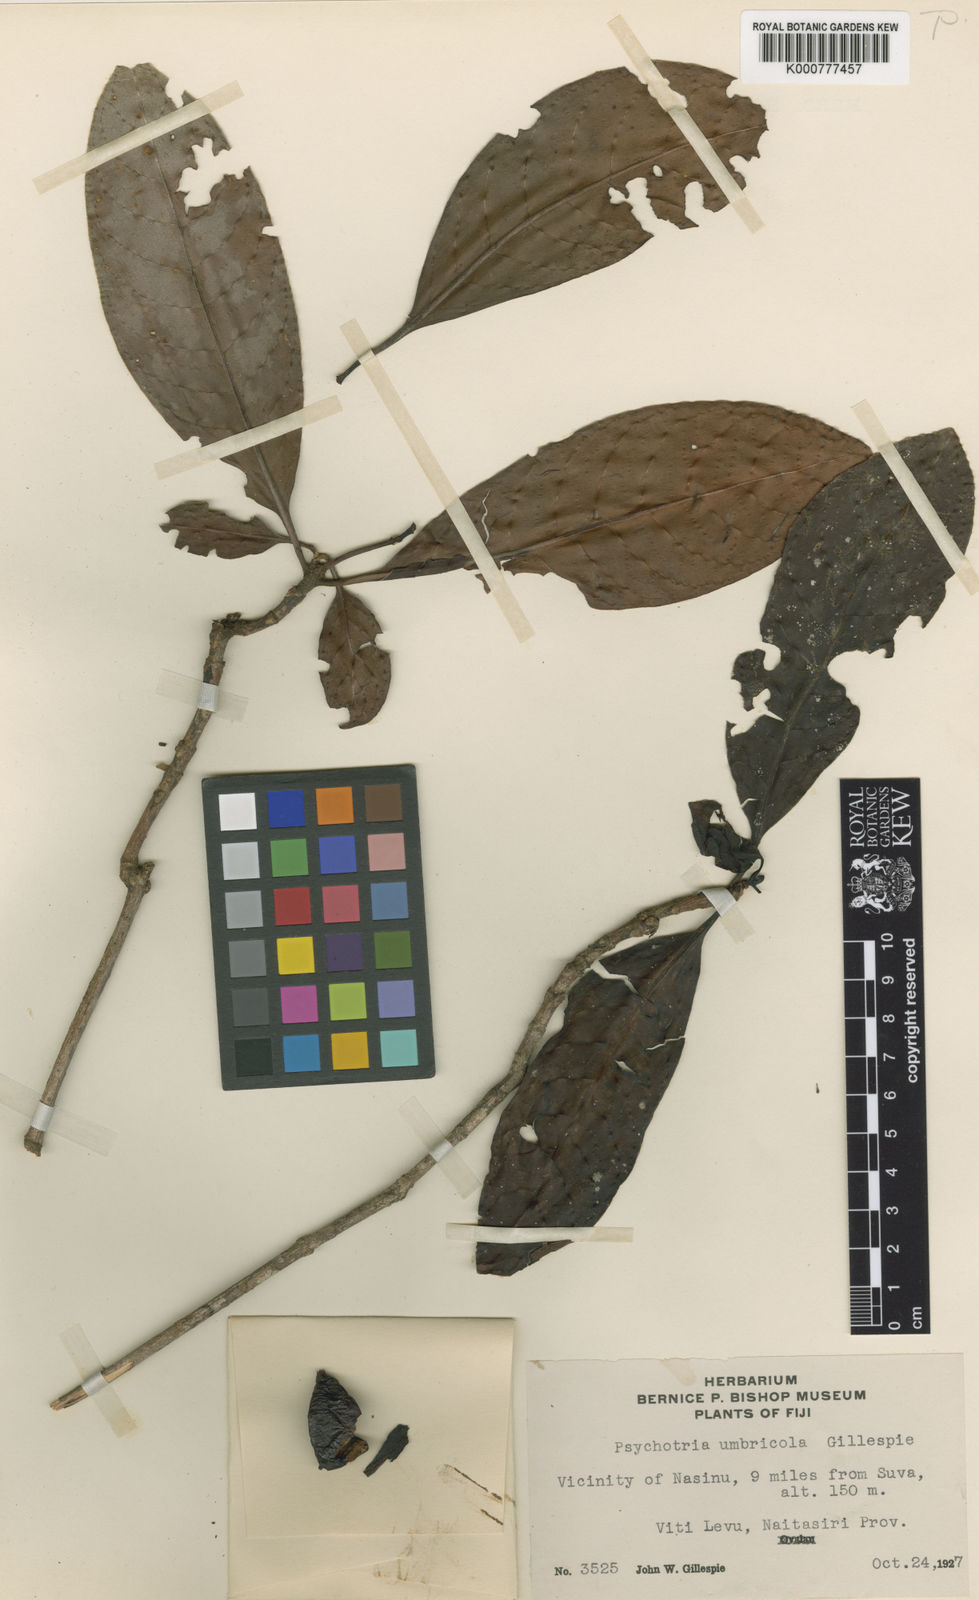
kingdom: Plantae
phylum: Tracheophyta
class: Magnoliopsida
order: Gentianales
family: Rubiaceae
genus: Psychotria
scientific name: Psychotria confertiloba
